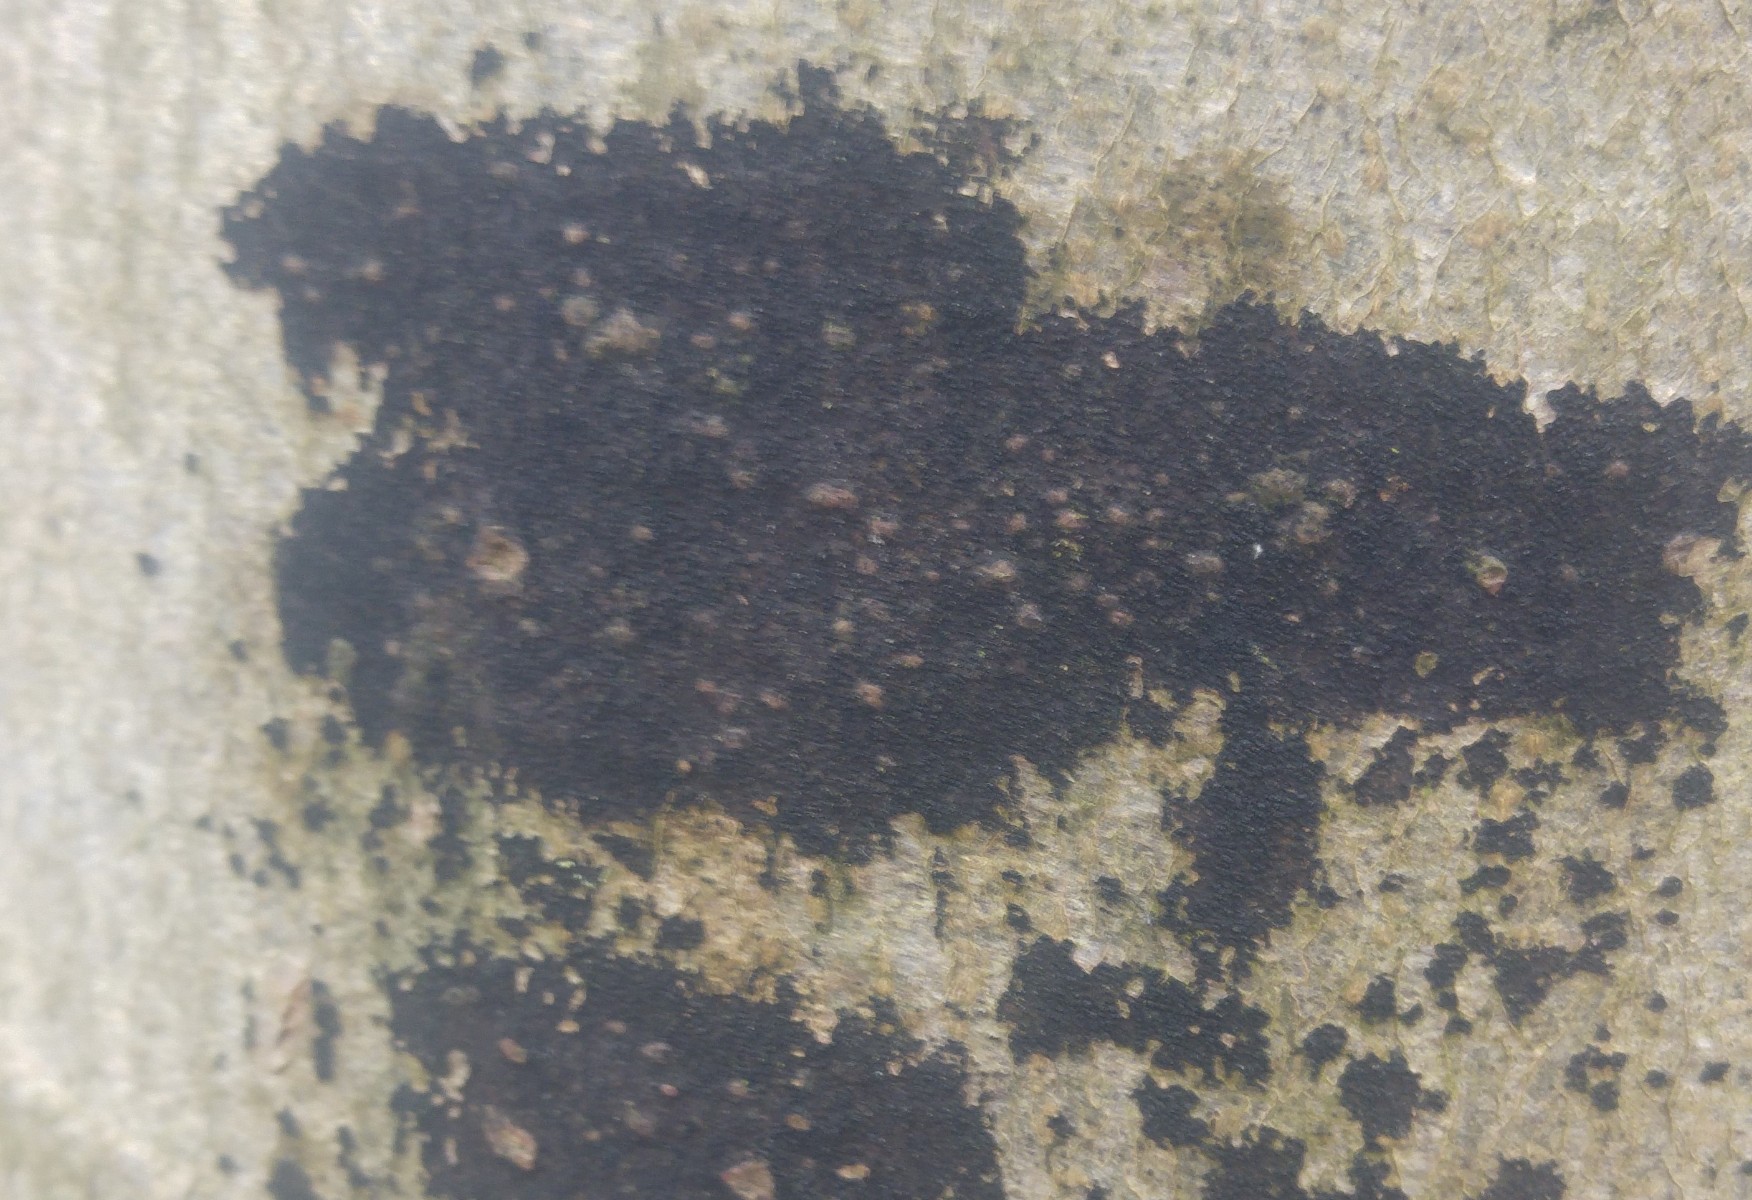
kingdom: Fungi
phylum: Ascomycota
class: Leotiomycetes
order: Rhytismatales
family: Ascodichaenaceae
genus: Ascodichaena
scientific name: Ascodichaena rugosa
